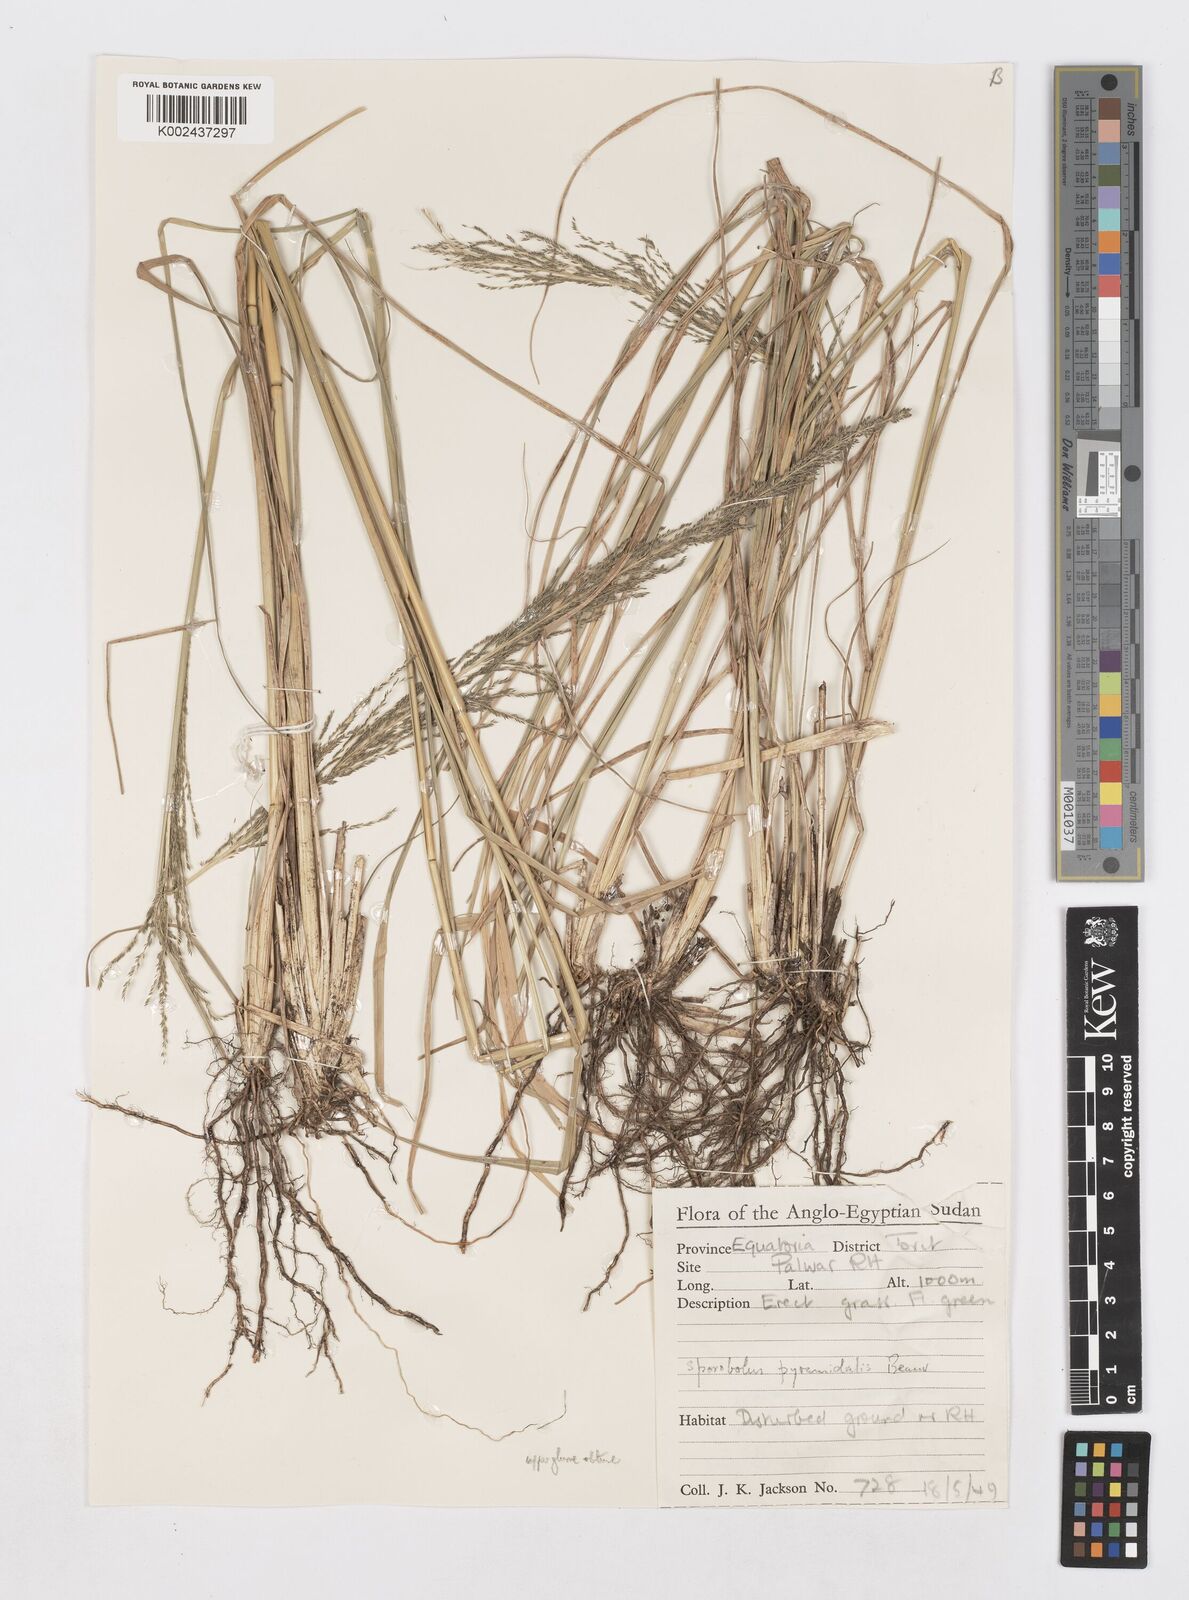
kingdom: Plantae
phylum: Tracheophyta
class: Liliopsida
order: Poales
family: Poaceae
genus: Sporobolus
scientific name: Sporobolus pyramidalis
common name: West indian dropseed
